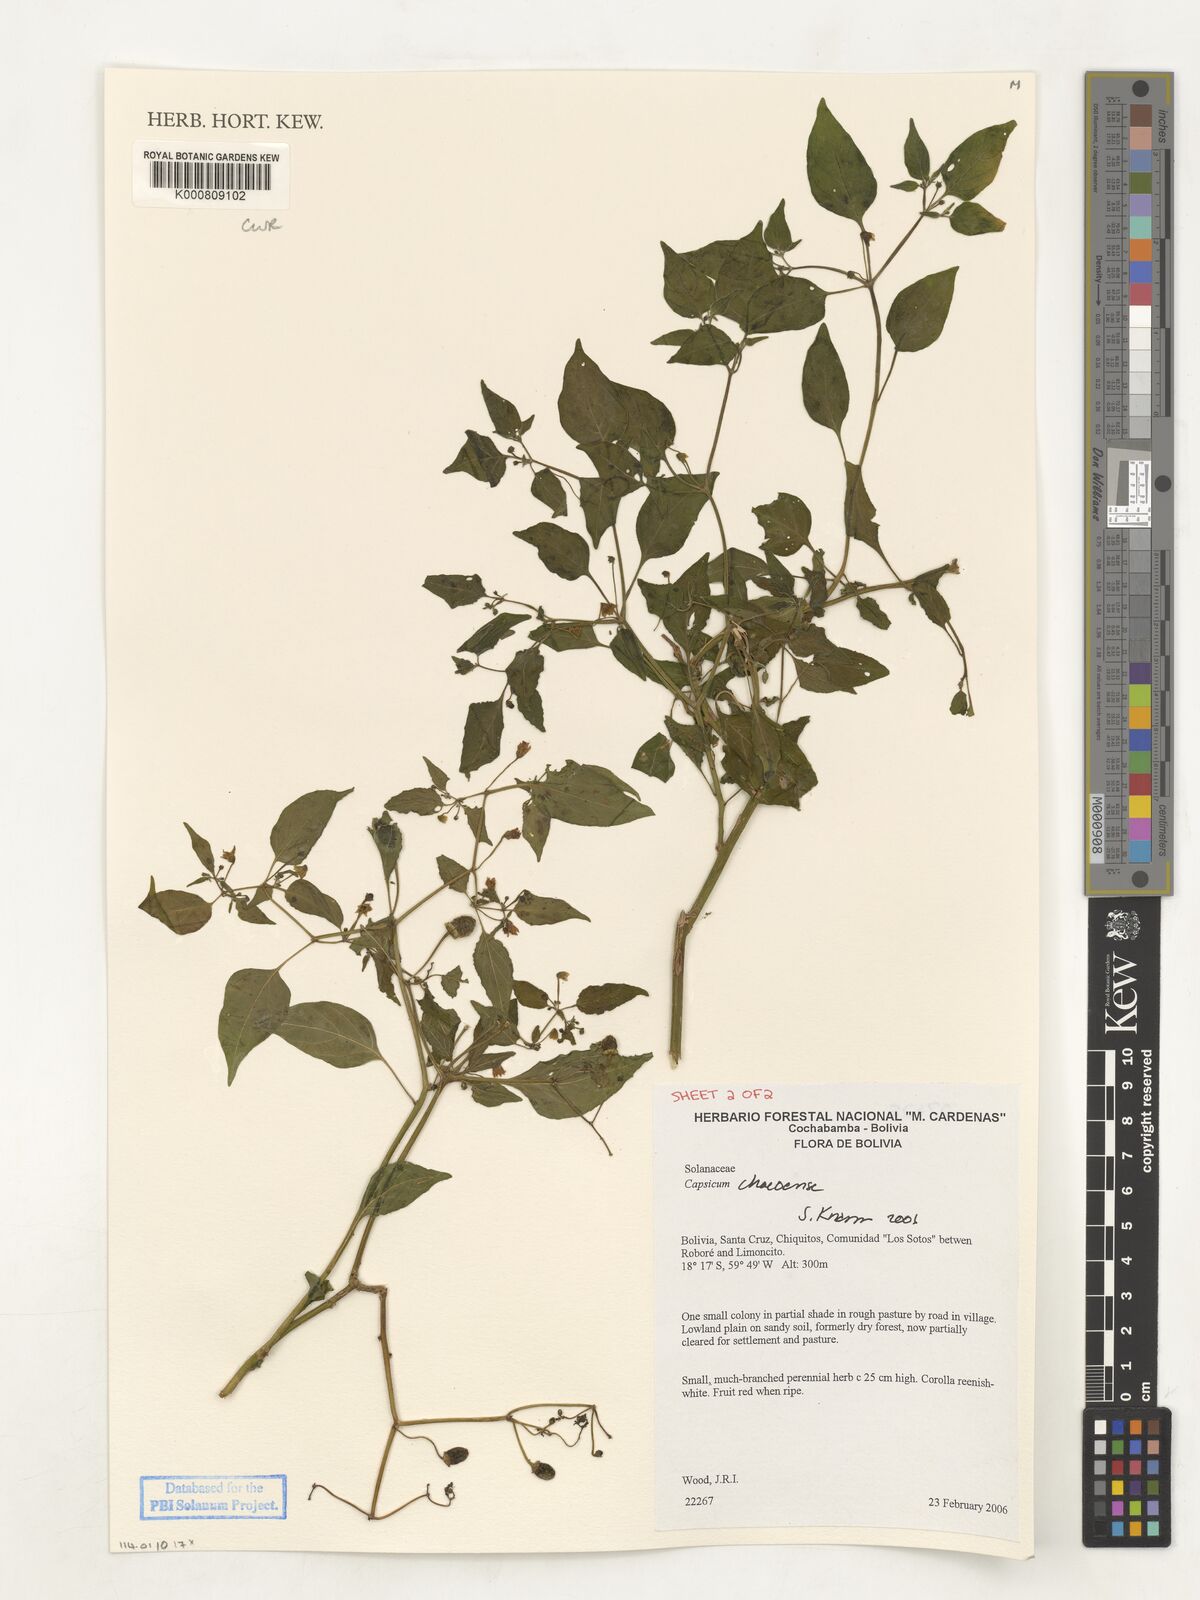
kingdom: Plantae
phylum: Tracheophyta
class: Magnoliopsida
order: Solanales
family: Solanaceae
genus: Capsicum
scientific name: Capsicum chacoense
